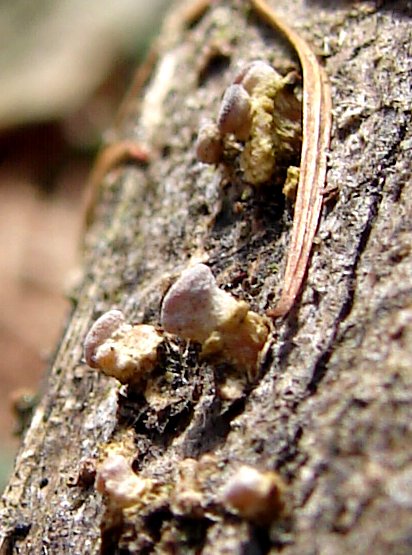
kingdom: Fungi
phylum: Basidiomycota
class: Dacrymycetes
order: Dacrymycetales
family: Dacrymycetaceae
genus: Ditiola
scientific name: Ditiola radicata
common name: rod-tåresvamp
